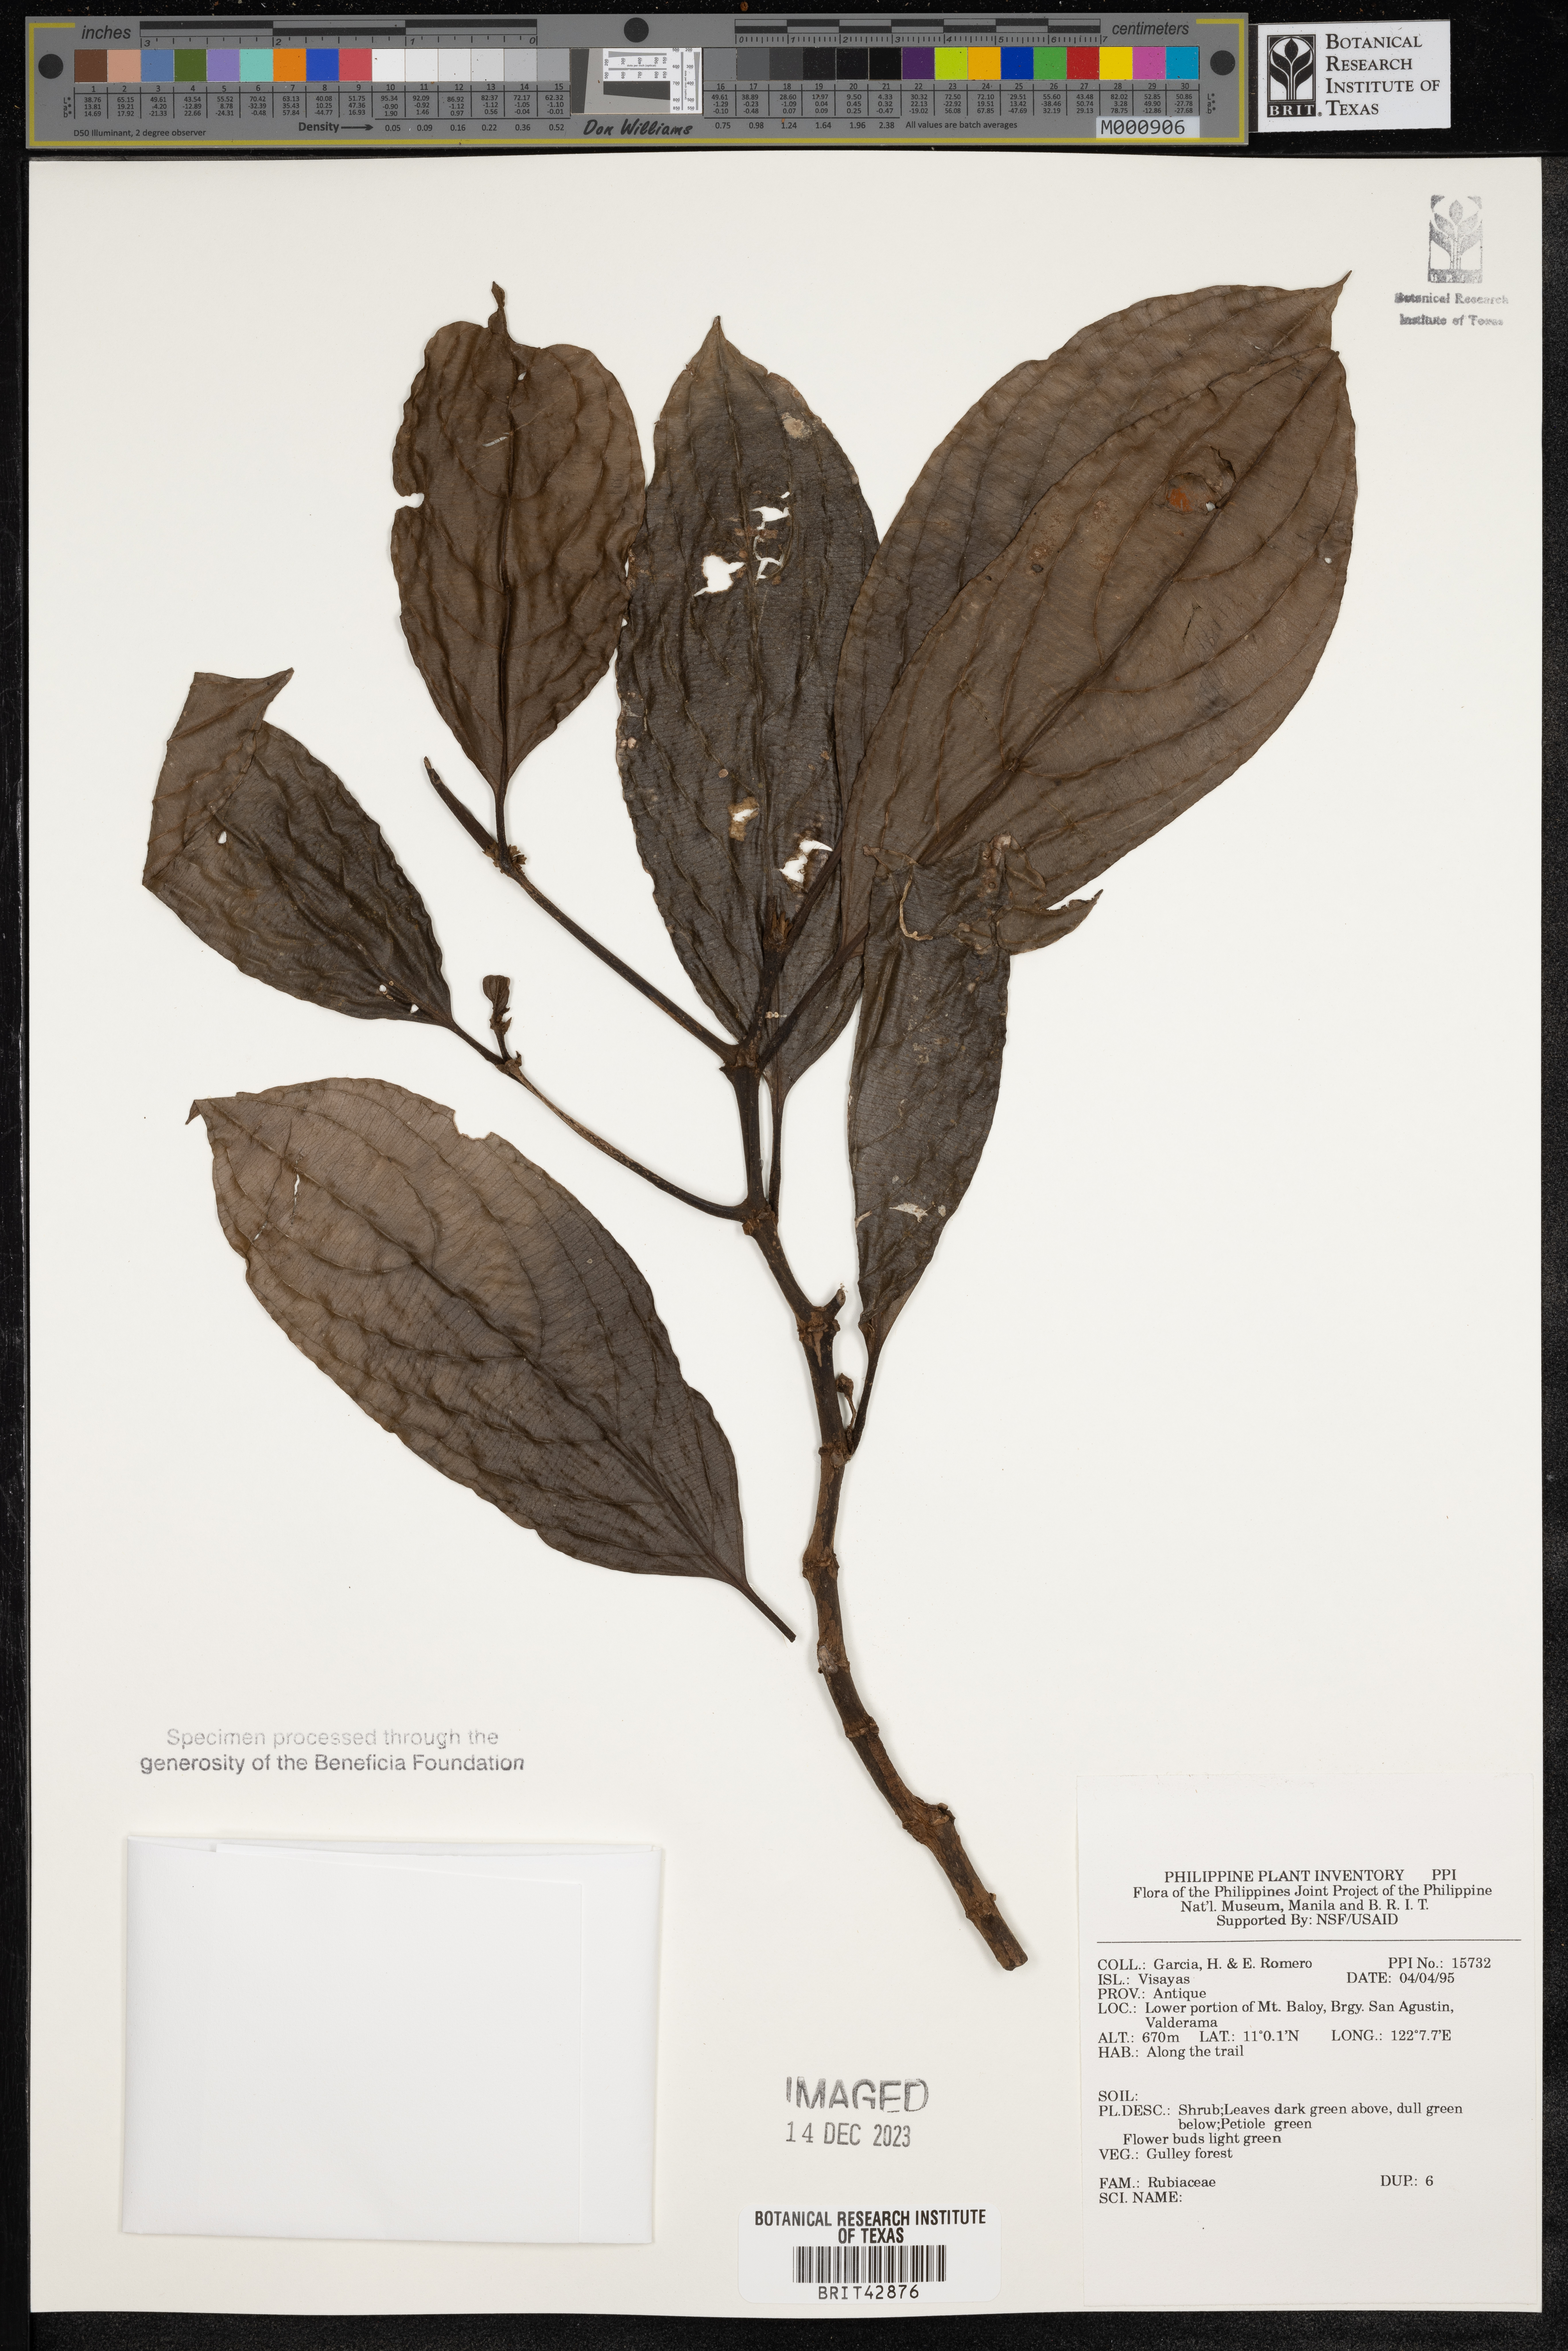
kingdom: Plantae
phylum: Tracheophyta
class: Magnoliopsida
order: Gentianales
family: Rubiaceae
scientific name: Rubiaceae
